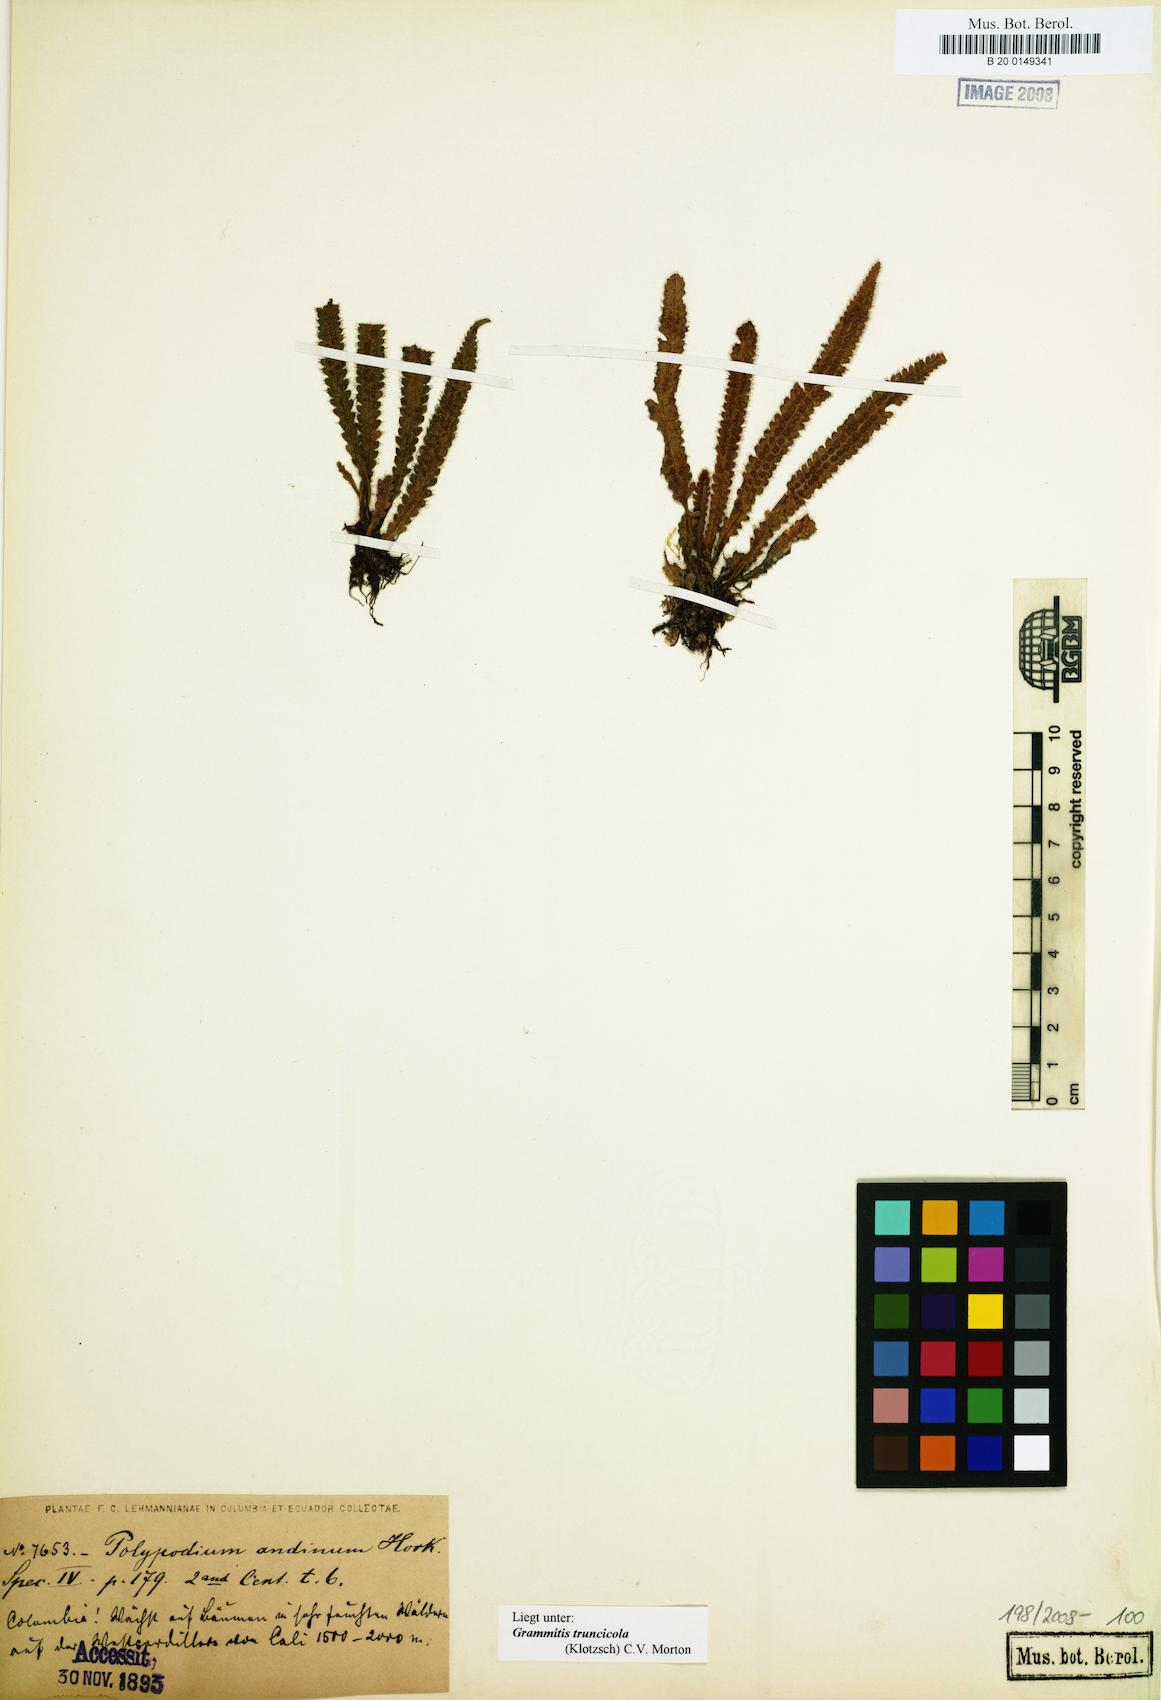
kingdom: Plantae
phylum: Tracheophyta
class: Polypodiopsida
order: Polypodiales
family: Polypodiaceae
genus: Moranopteris
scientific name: Moranopteris truncicola
